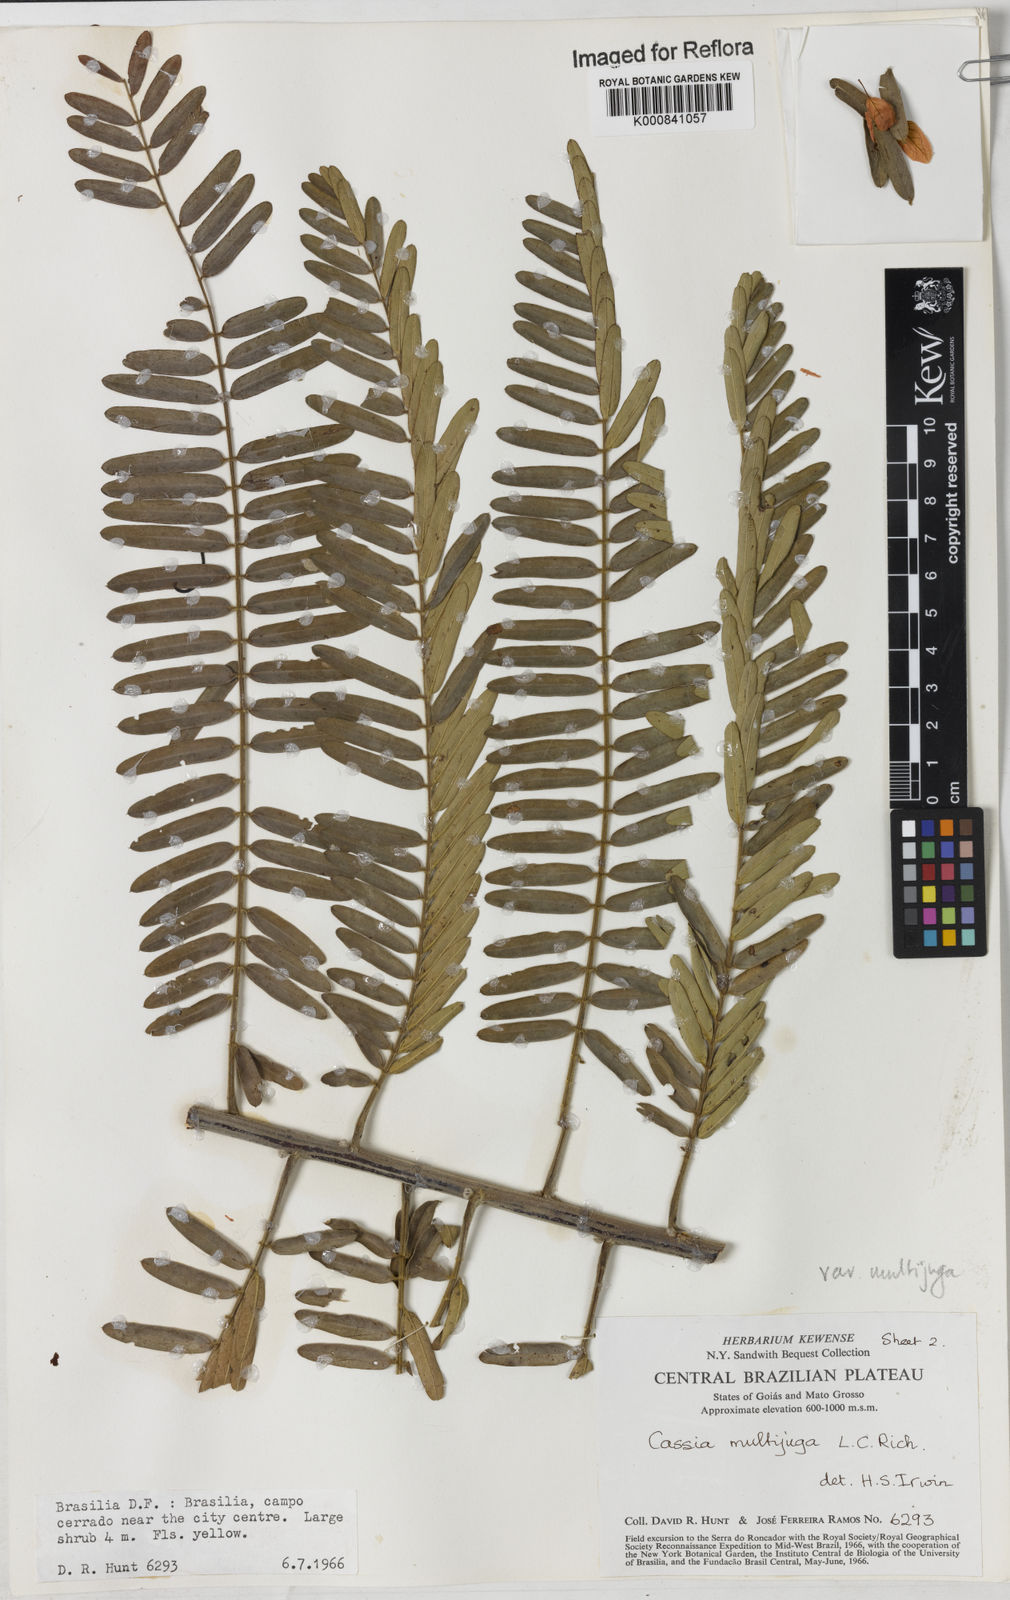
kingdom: Plantae
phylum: Tracheophyta
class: Magnoliopsida
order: Fabales
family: Fabaceae
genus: Senna
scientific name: Senna multijuga
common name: False sicklepod
